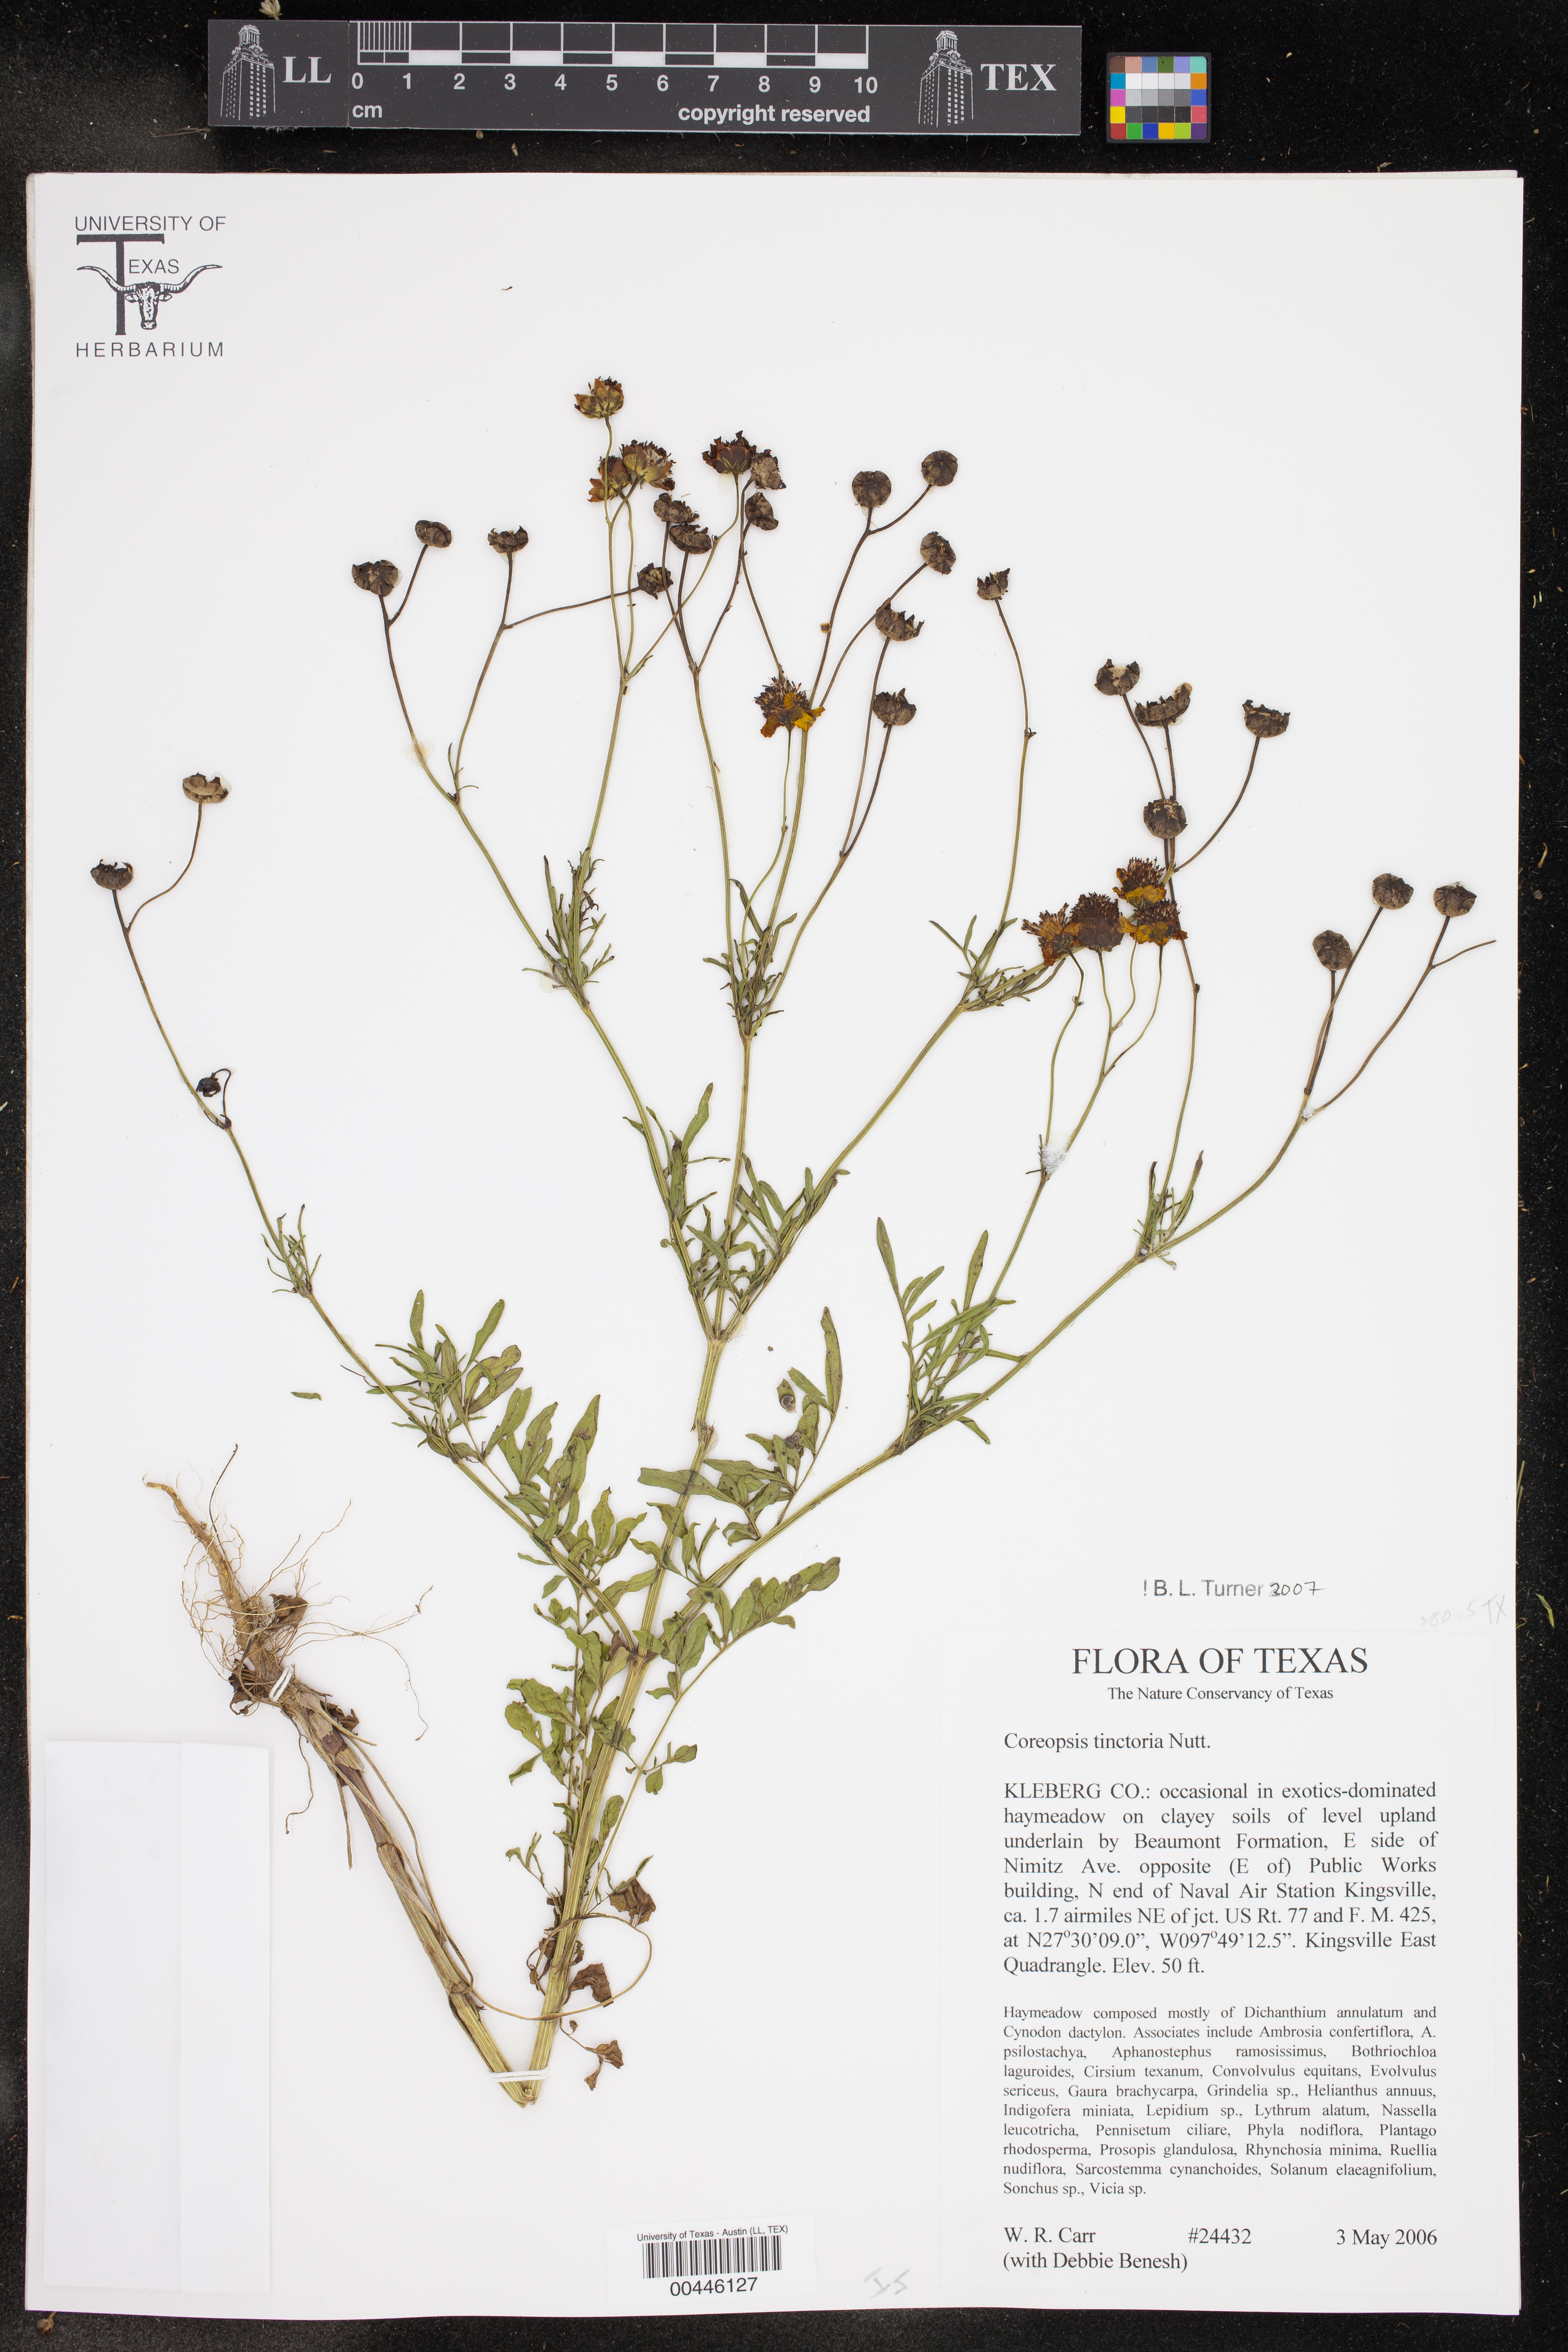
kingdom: Plantae
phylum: Tracheophyta
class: Magnoliopsida
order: Asterales
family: Asteraceae
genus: Coreopsis
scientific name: Coreopsis tinctoria
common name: Garden tickseed
